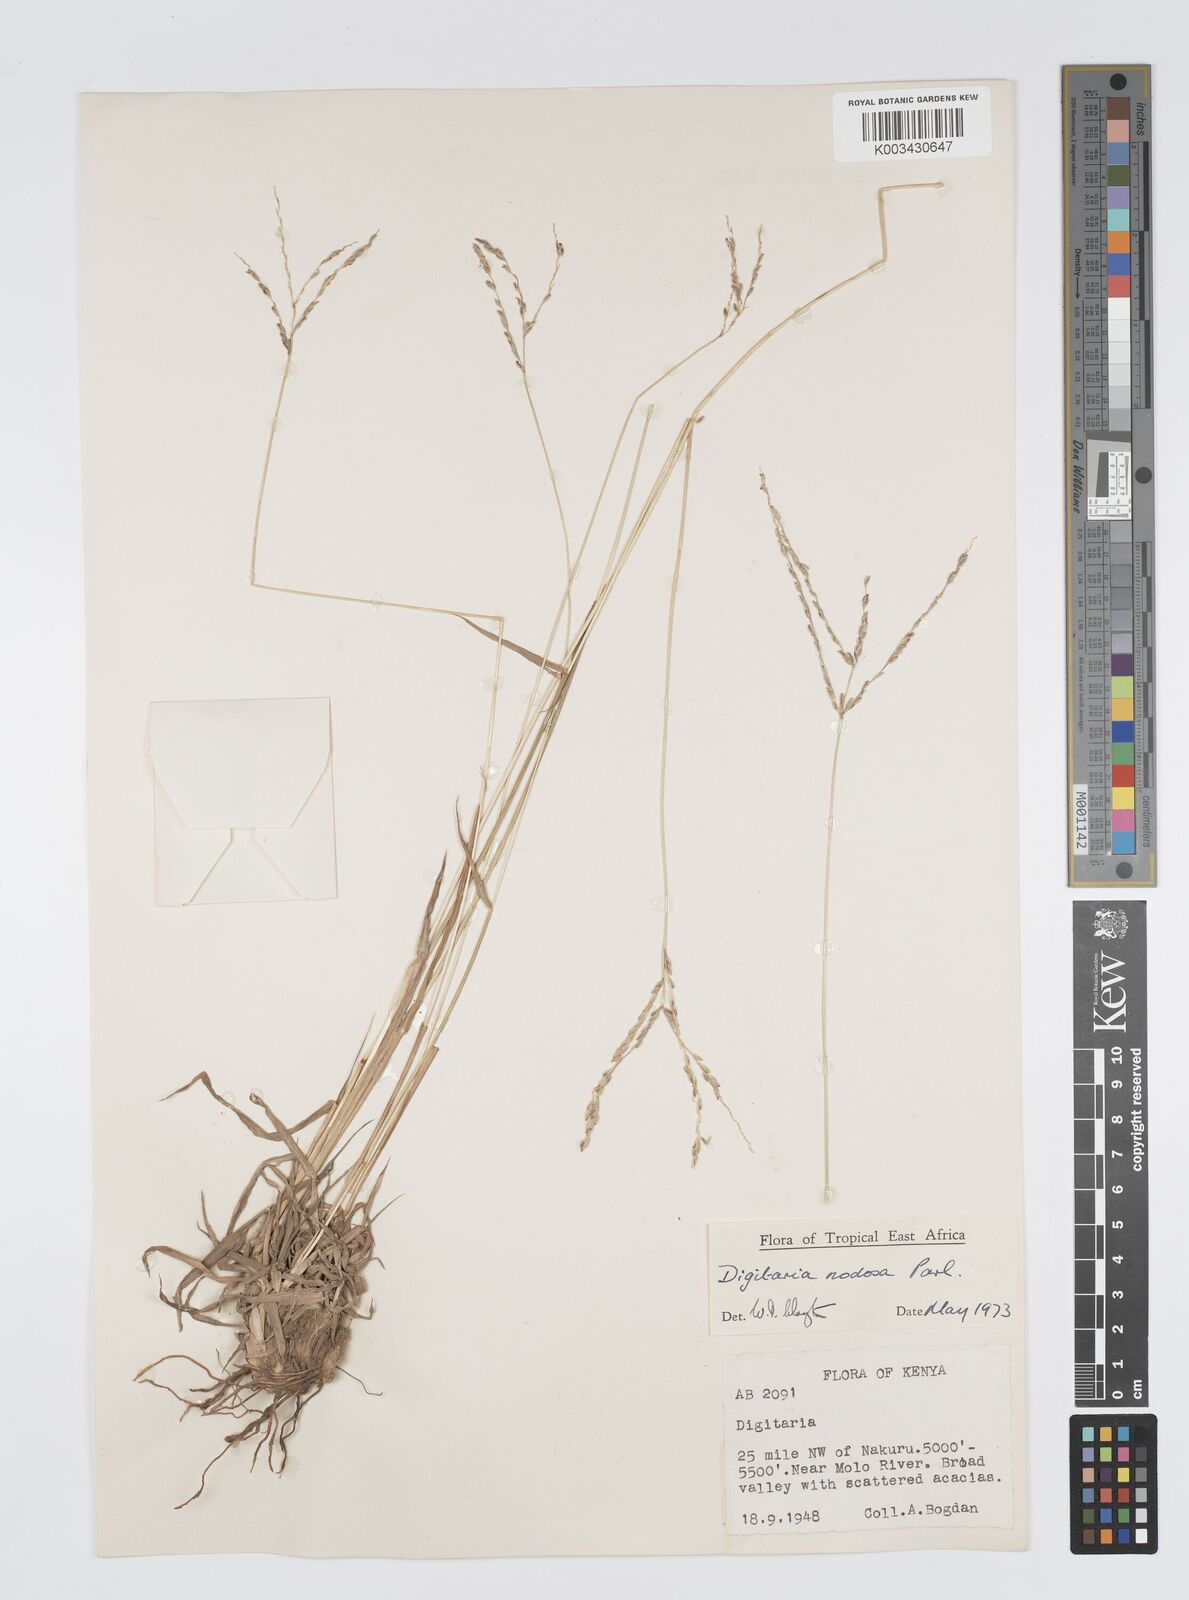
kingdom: Plantae
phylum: Tracheophyta
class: Liliopsida
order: Poales
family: Poaceae
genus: Digitaria
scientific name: Digitaria nodosa
